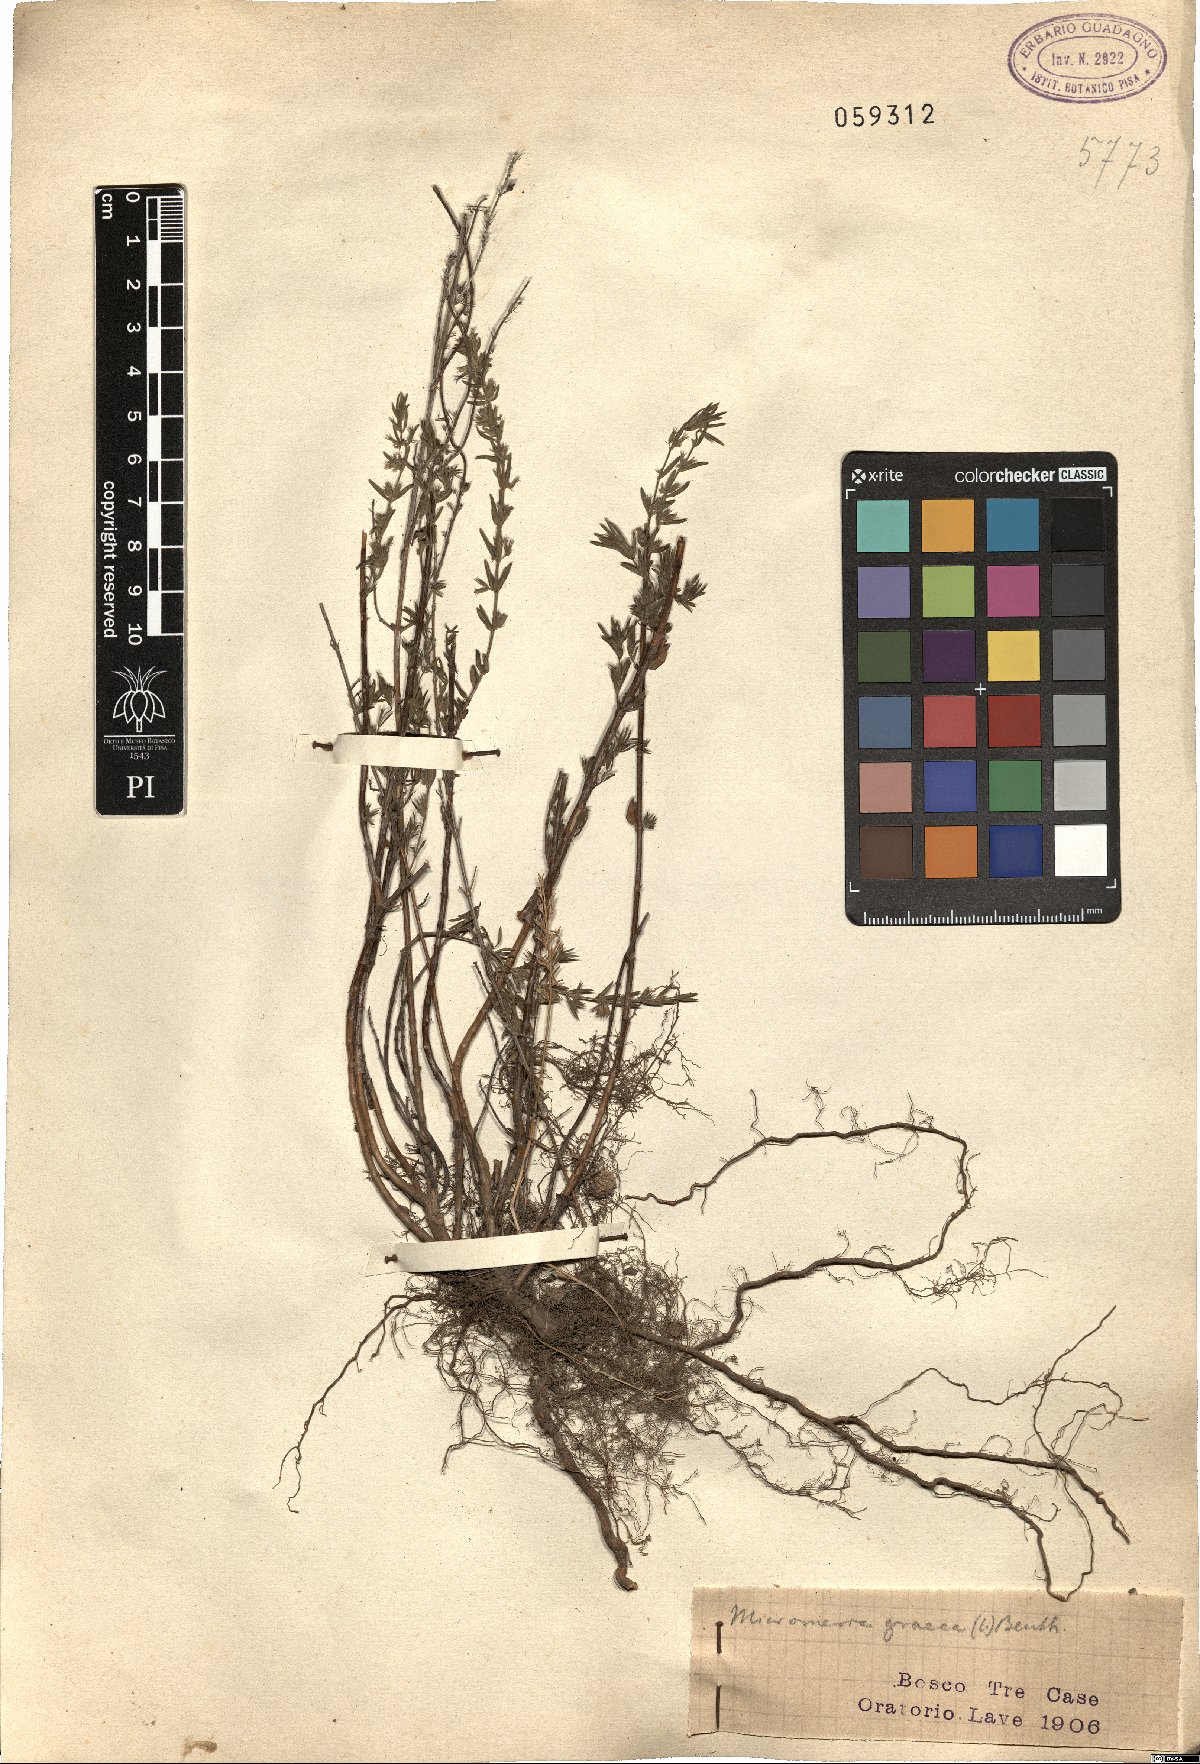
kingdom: Plantae
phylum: Tracheophyta
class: Magnoliopsida
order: Lamiales
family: Lamiaceae
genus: Micromeria
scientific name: Micromeria graeca
